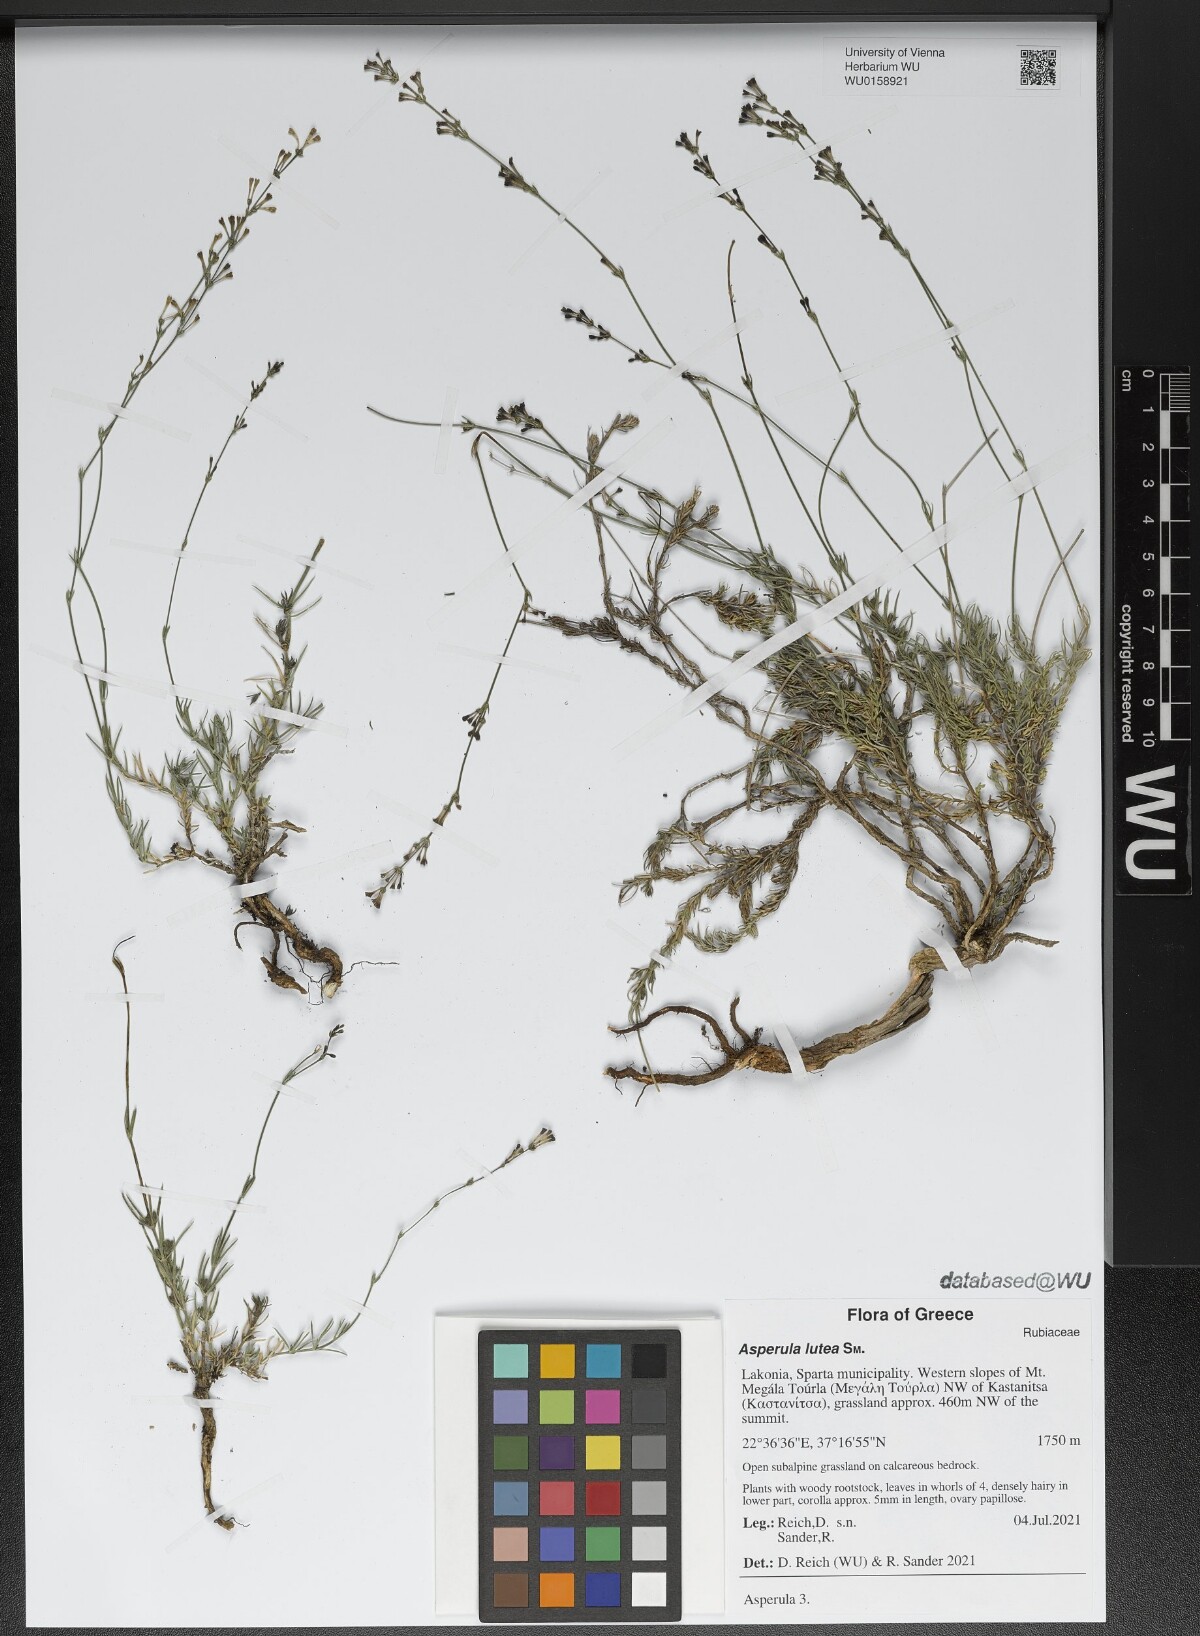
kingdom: Plantae
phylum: Tracheophyta
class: Magnoliopsida
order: Gentianales
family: Rubiaceae
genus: Cynanchica
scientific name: Cynanchica lutea
